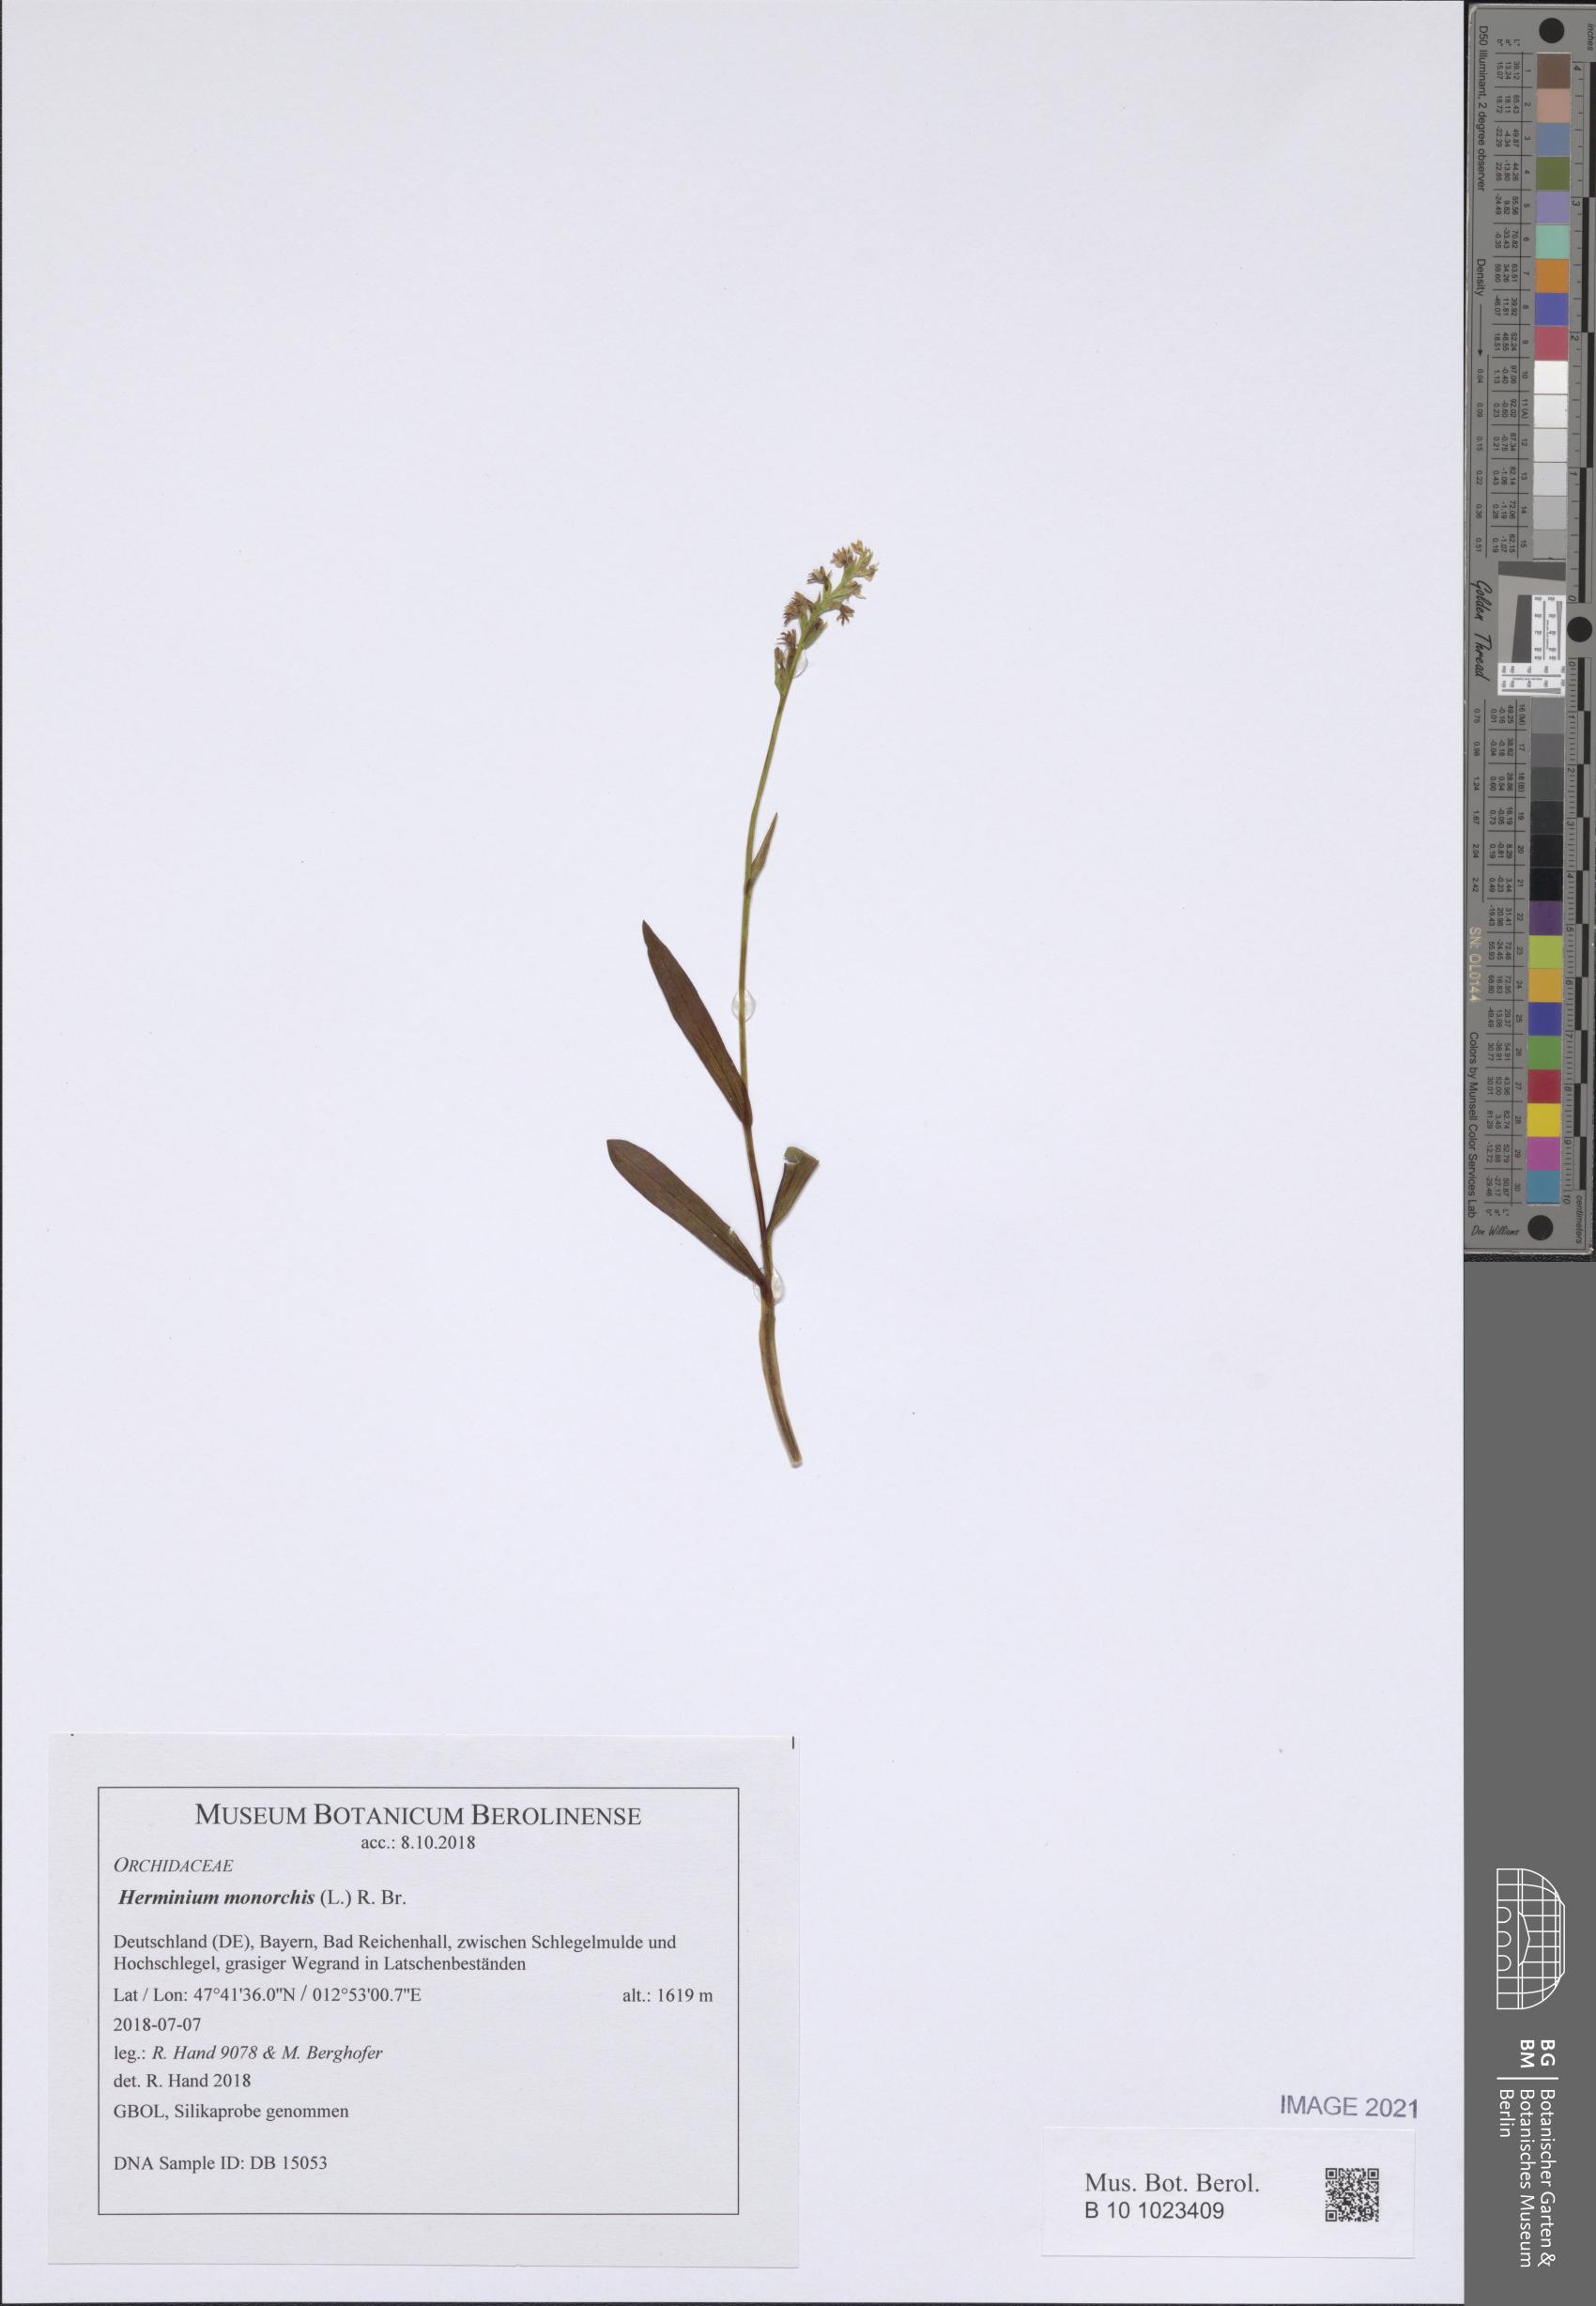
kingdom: Plantae
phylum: Tracheophyta
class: Liliopsida
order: Asparagales
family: Orchidaceae
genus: Herminium
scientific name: Herminium monorchis
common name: Musk orchid
